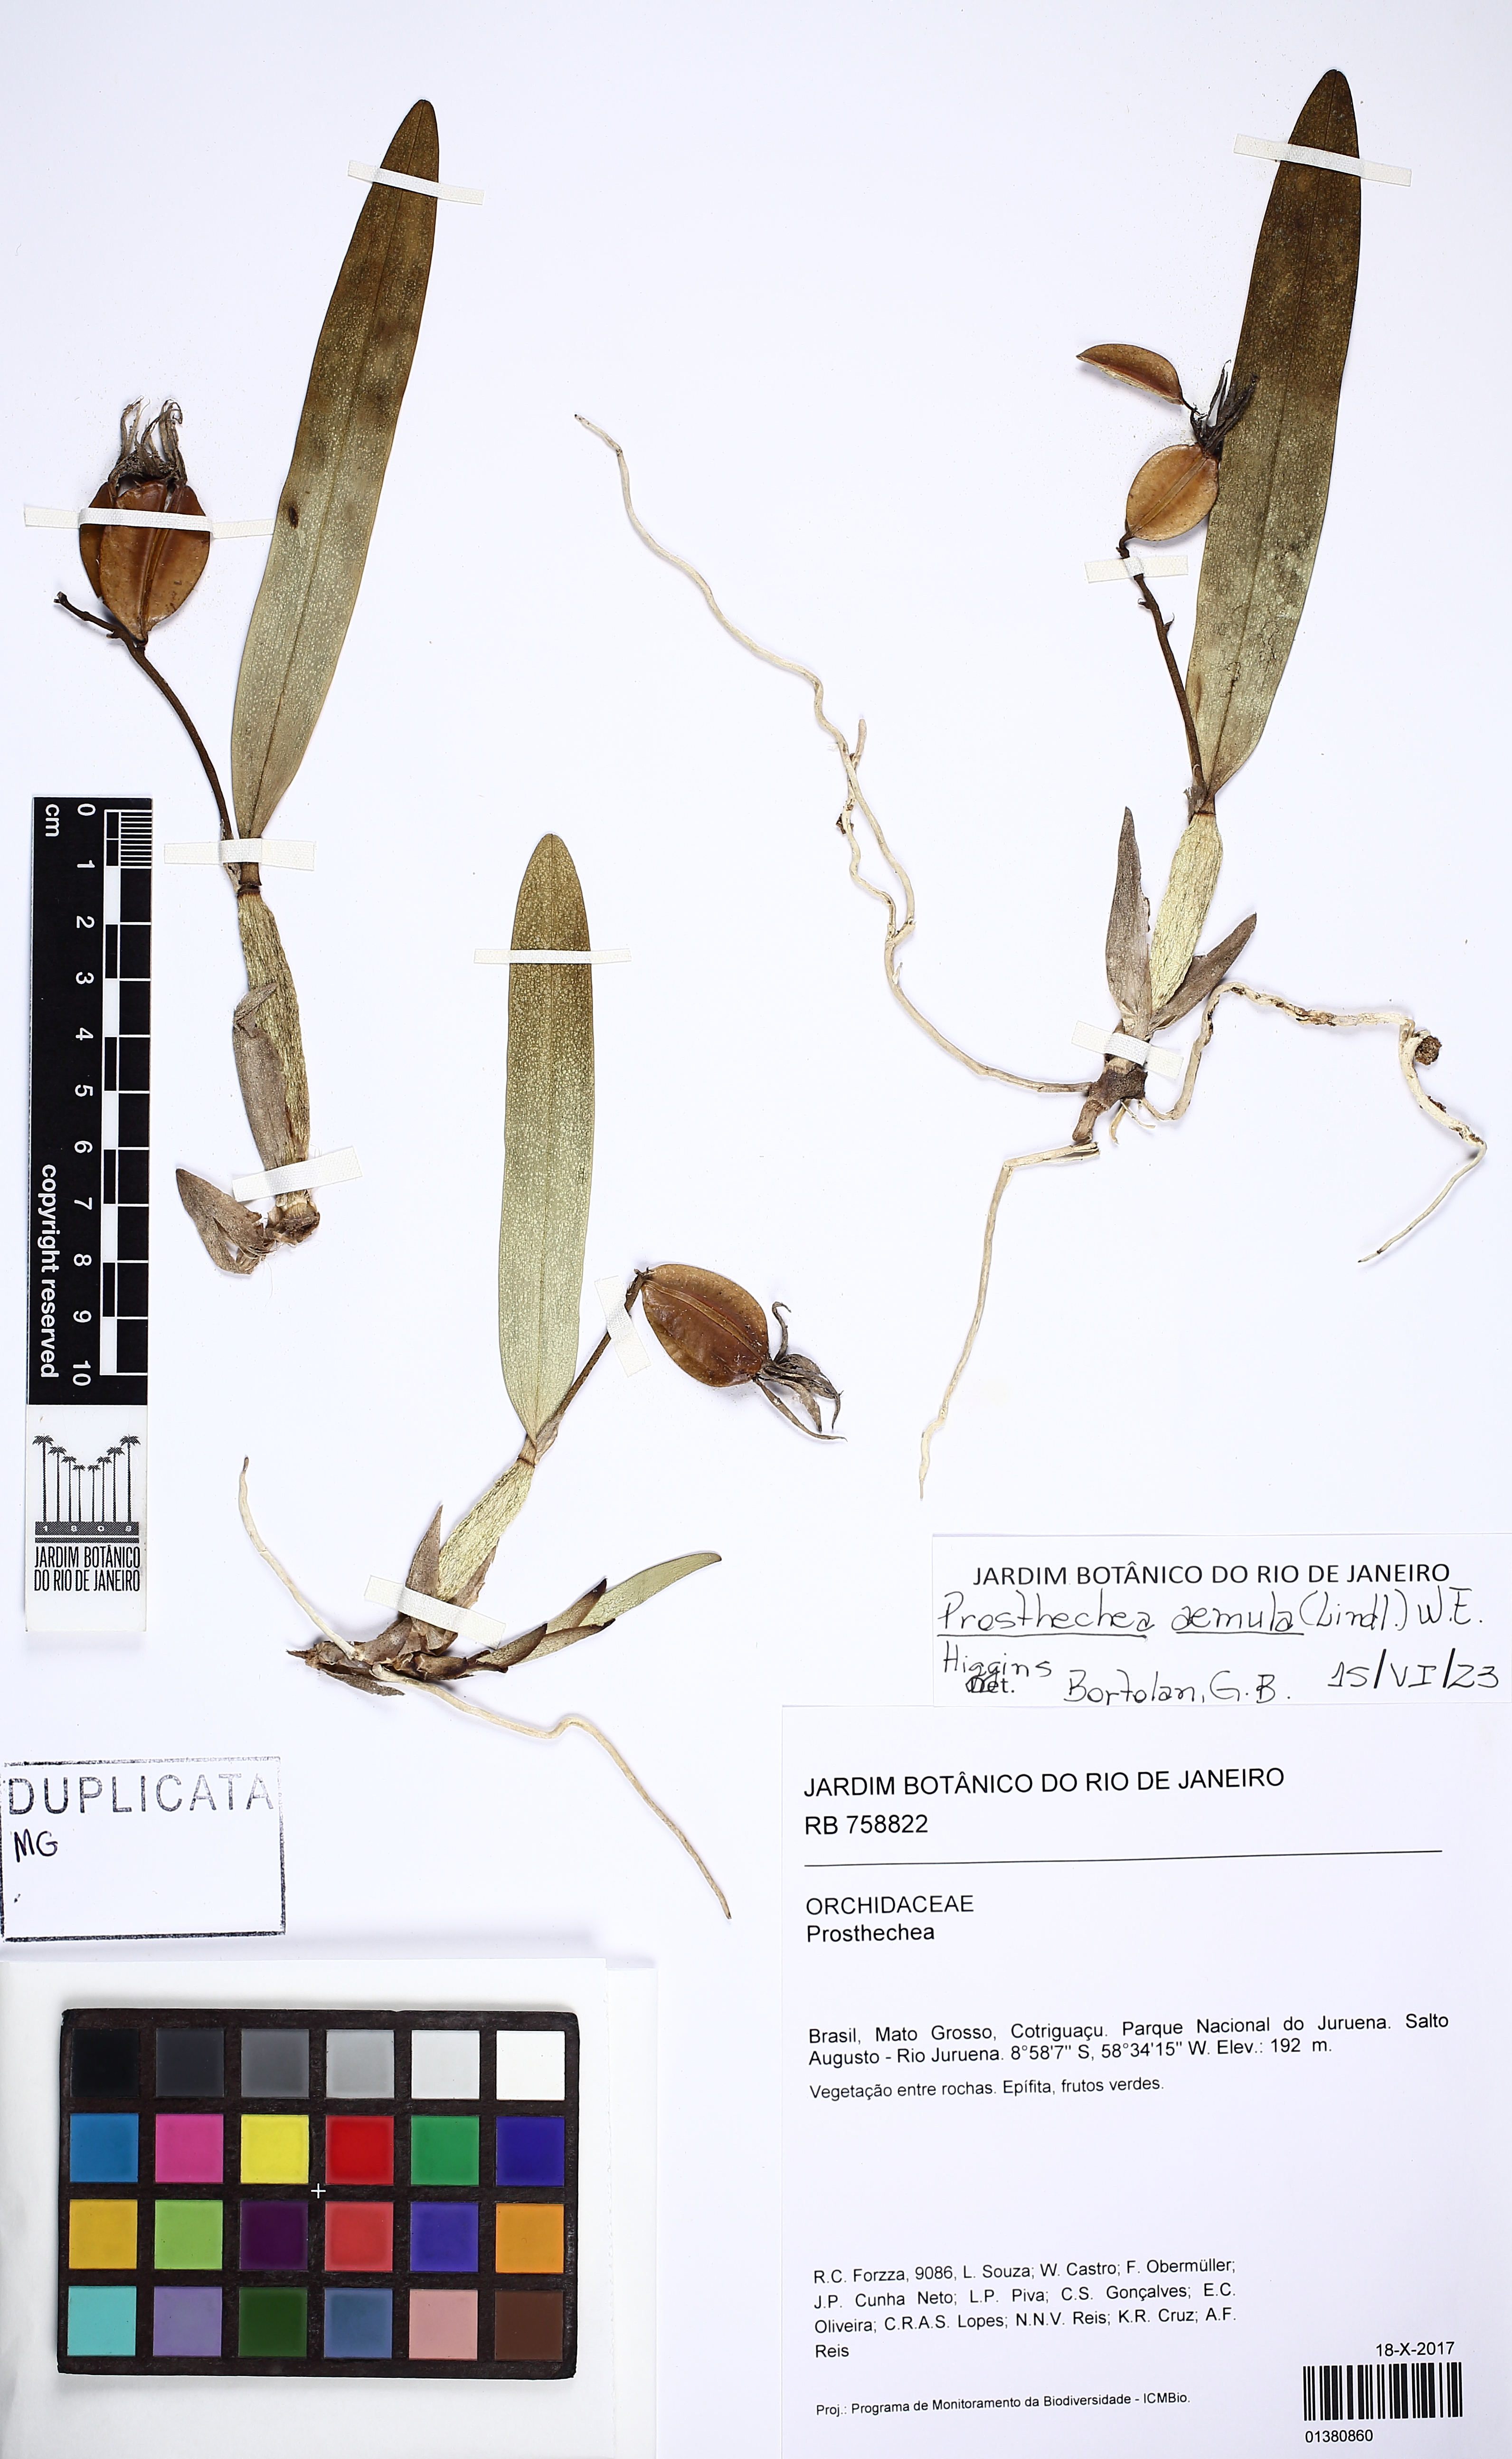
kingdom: Plantae
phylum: Tracheophyta
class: Liliopsida
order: Asparagales
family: Orchidaceae
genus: Prosthechea
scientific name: Prosthechea aemula
